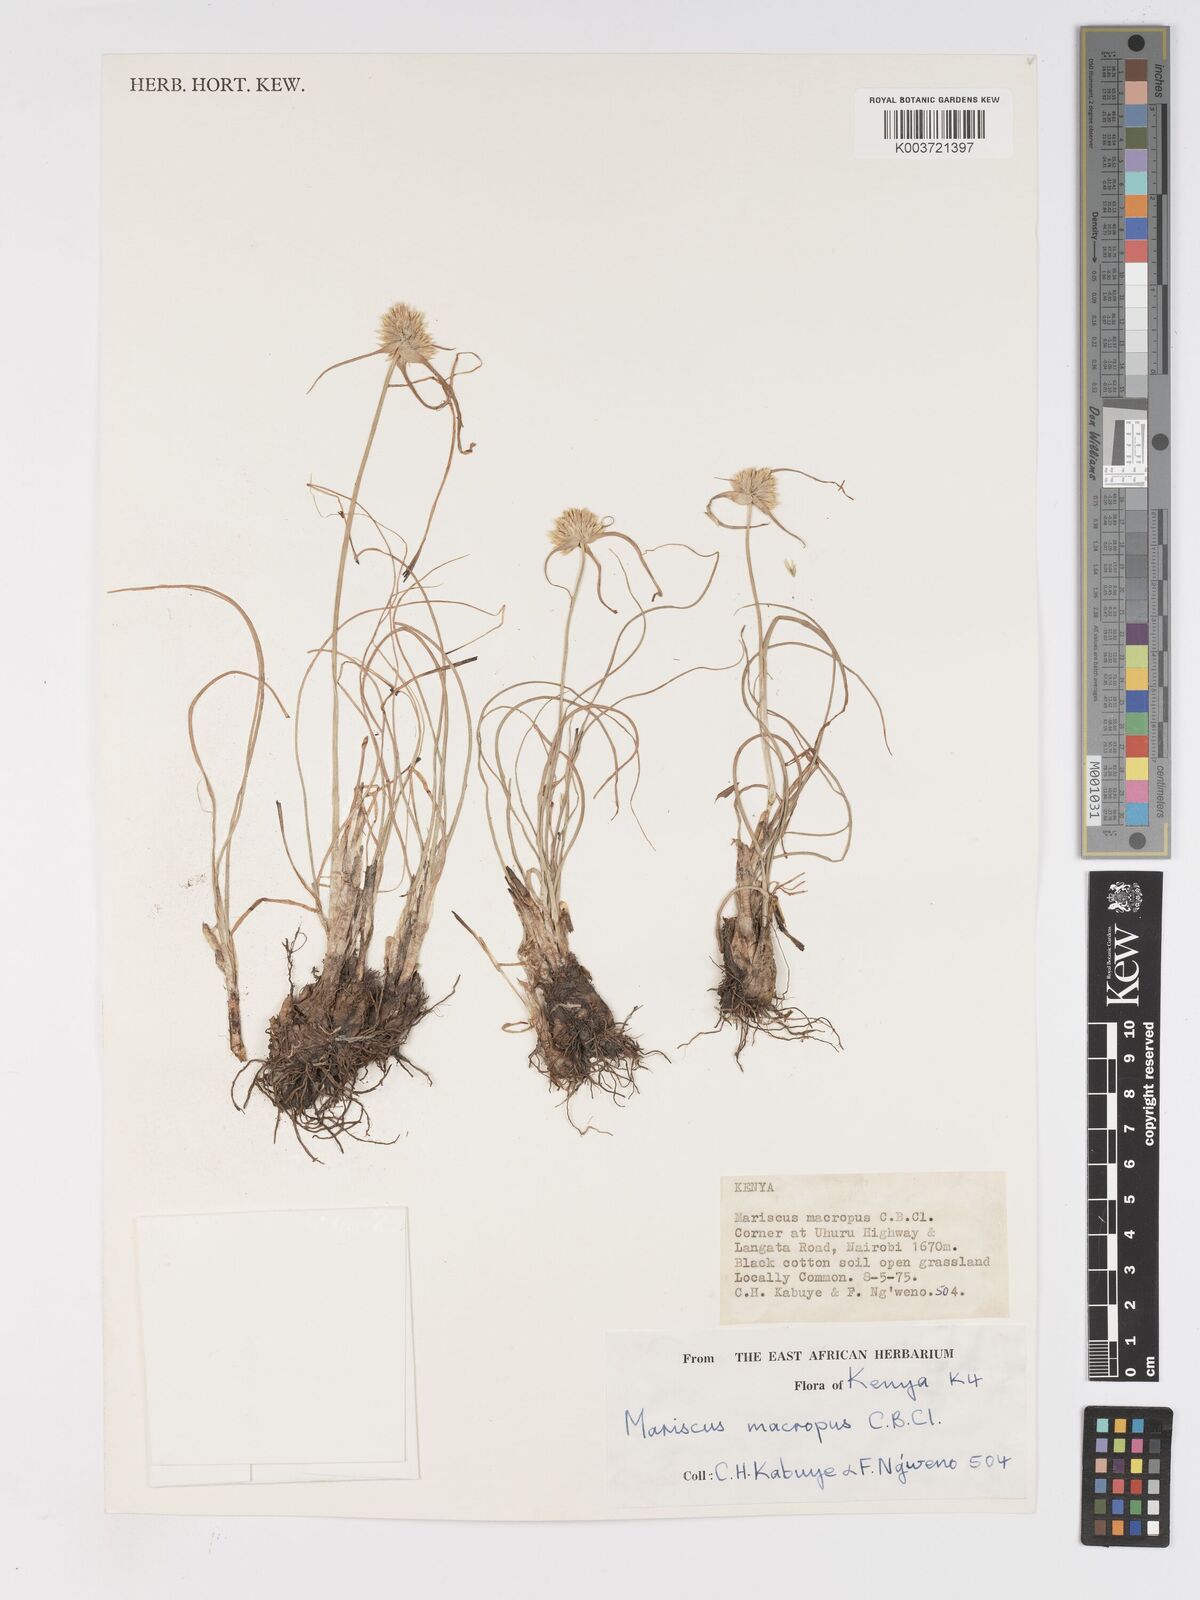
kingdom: Plantae
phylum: Tracheophyta
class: Liliopsida
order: Poales
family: Cyperaceae
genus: Cyperus
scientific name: Cyperus mollipes
